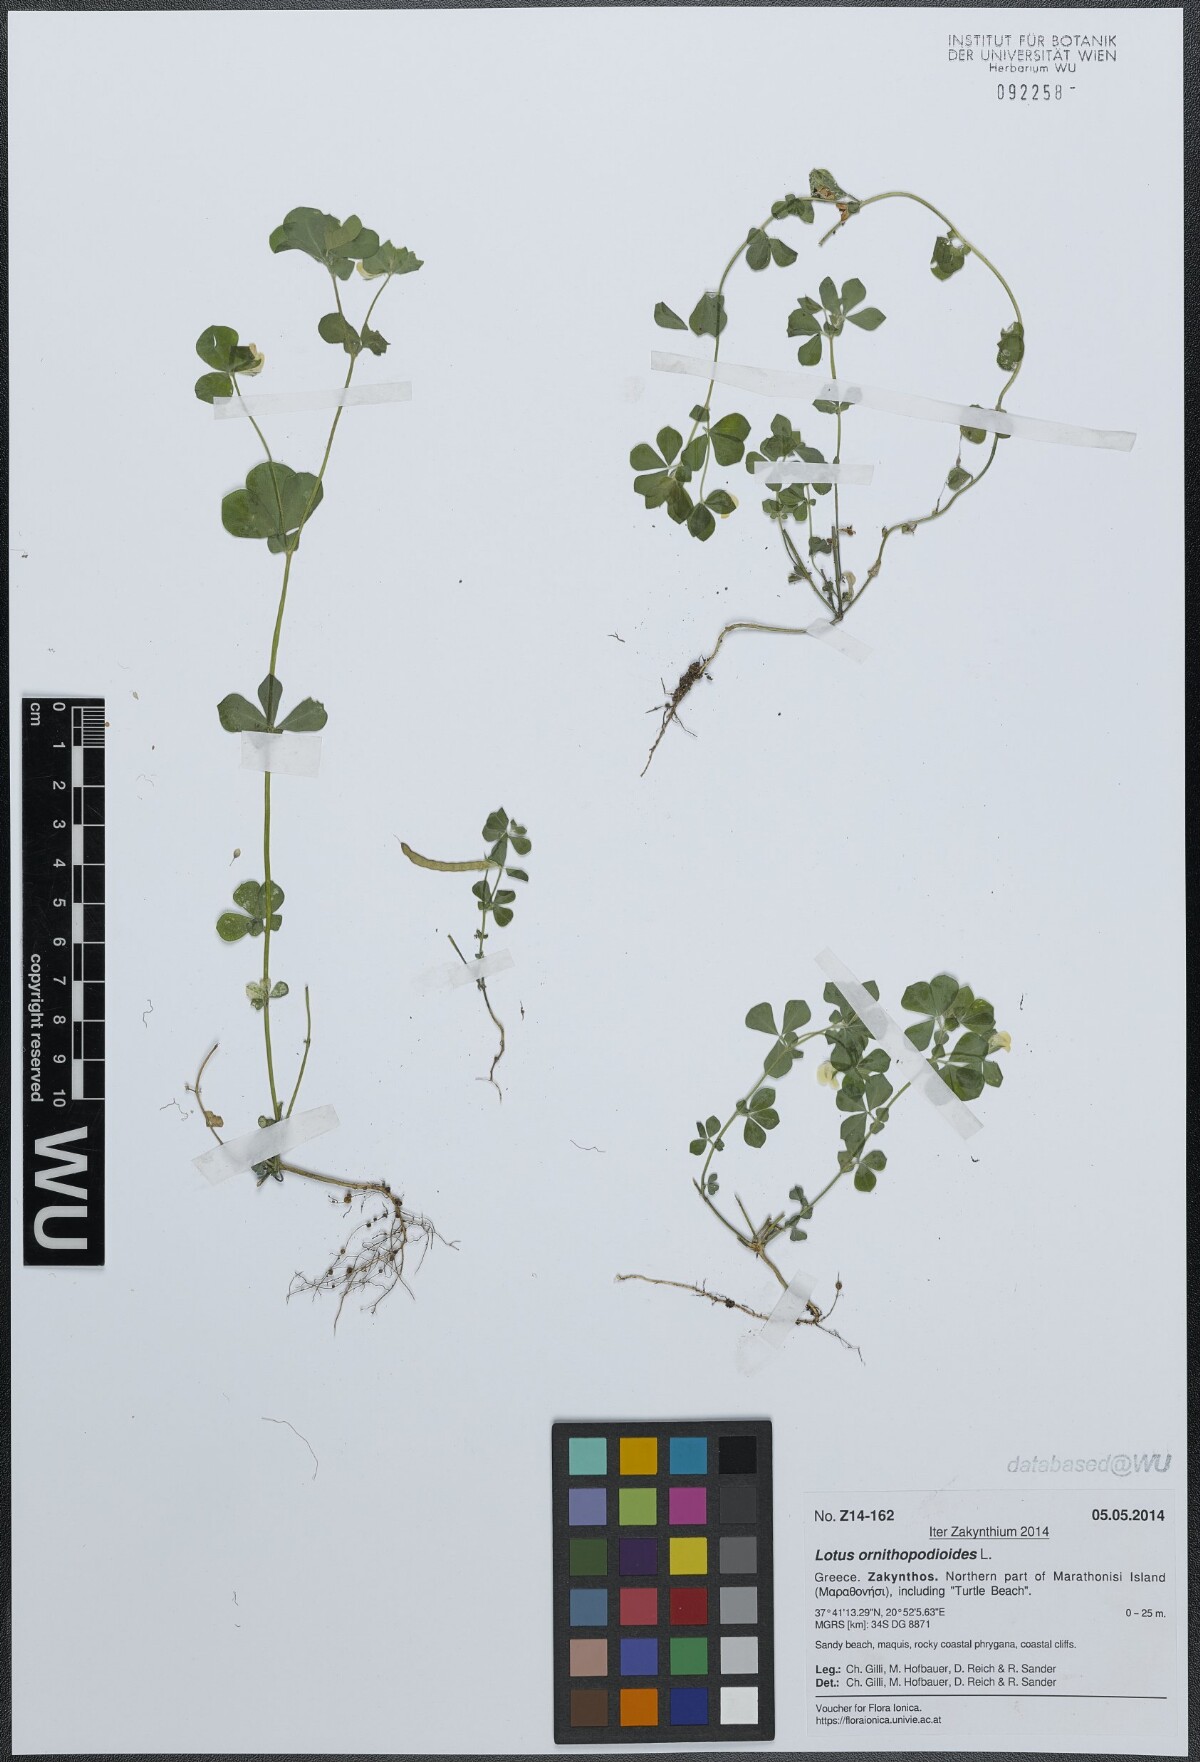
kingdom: Plantae
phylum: Tracheophyta
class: Magnoliopsida
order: Fabales
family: Fabaceae
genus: Lotus
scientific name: Lotus ornithopodioides
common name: Southern bird's-foot trefoil
